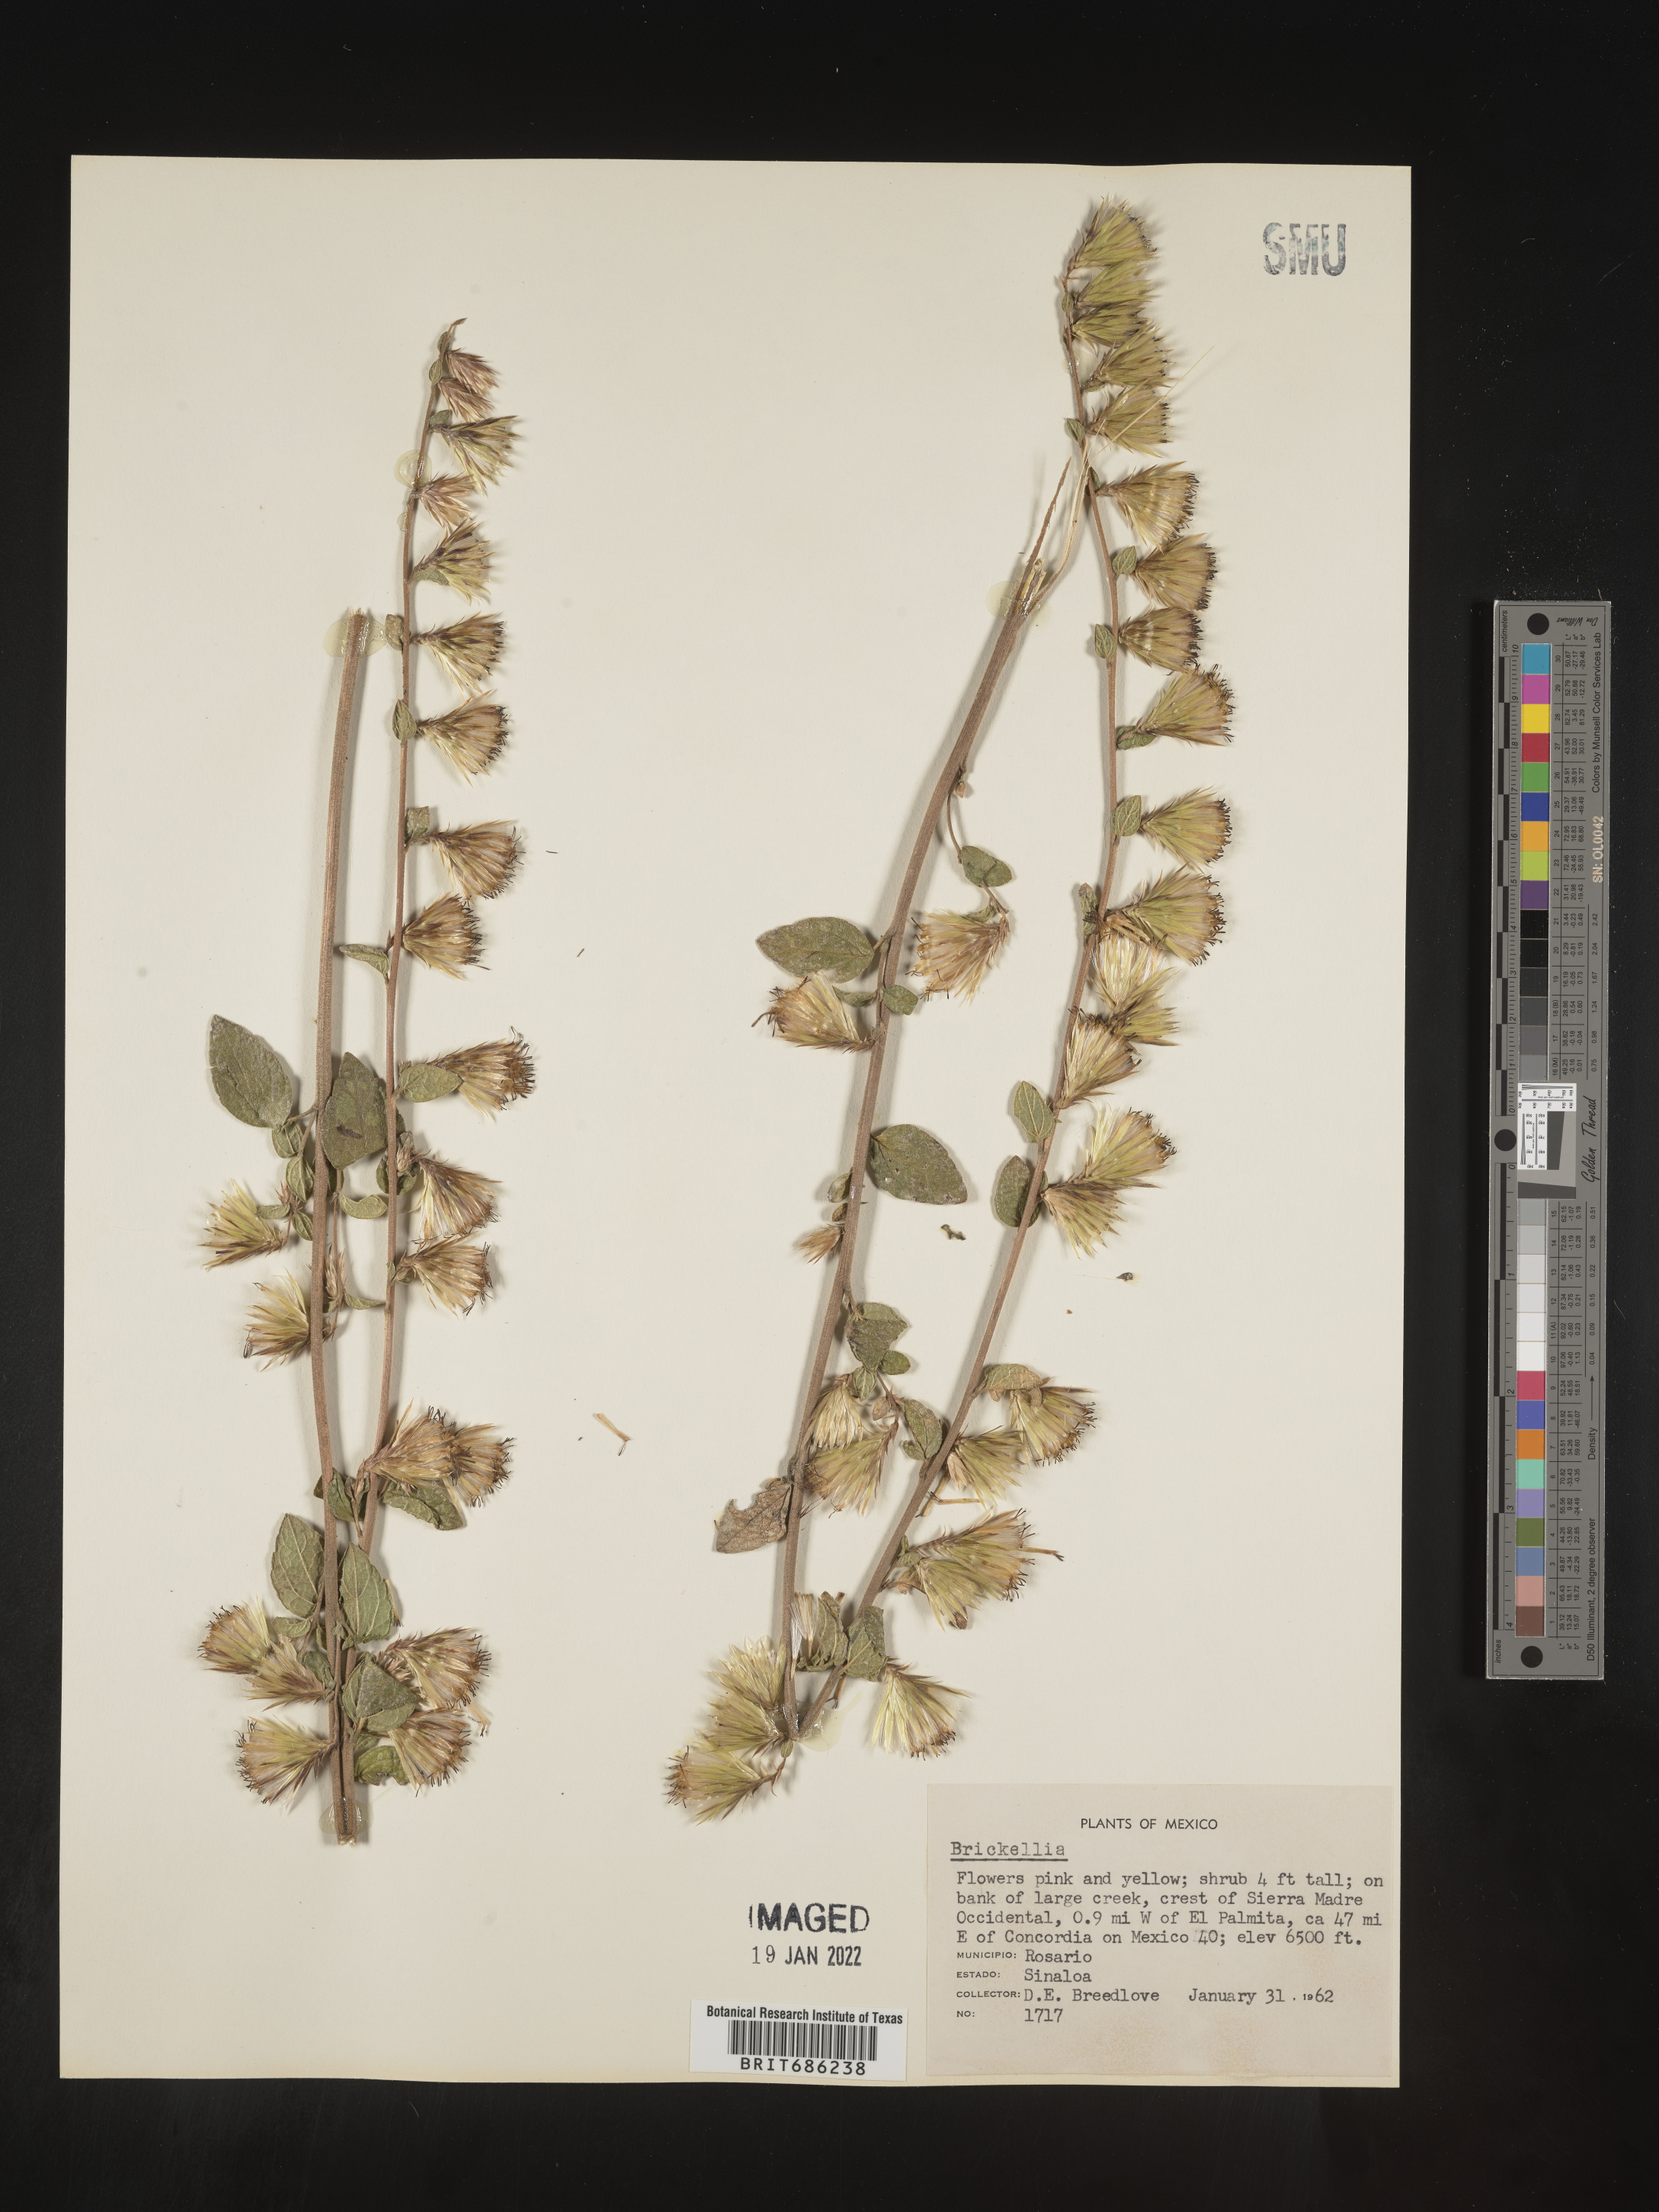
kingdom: Plantae
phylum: Tracheophyta
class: Magnoliopsida
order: Asterales
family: Asteraceae
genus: Brickellia
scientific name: Brickellia
